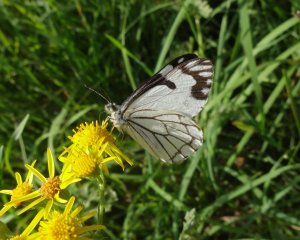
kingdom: Animalia
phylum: Arthropoda
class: Insecta
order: Lepidoptera
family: Pieridae
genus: Neophasia
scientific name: Neophasia menapia
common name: Pine White
